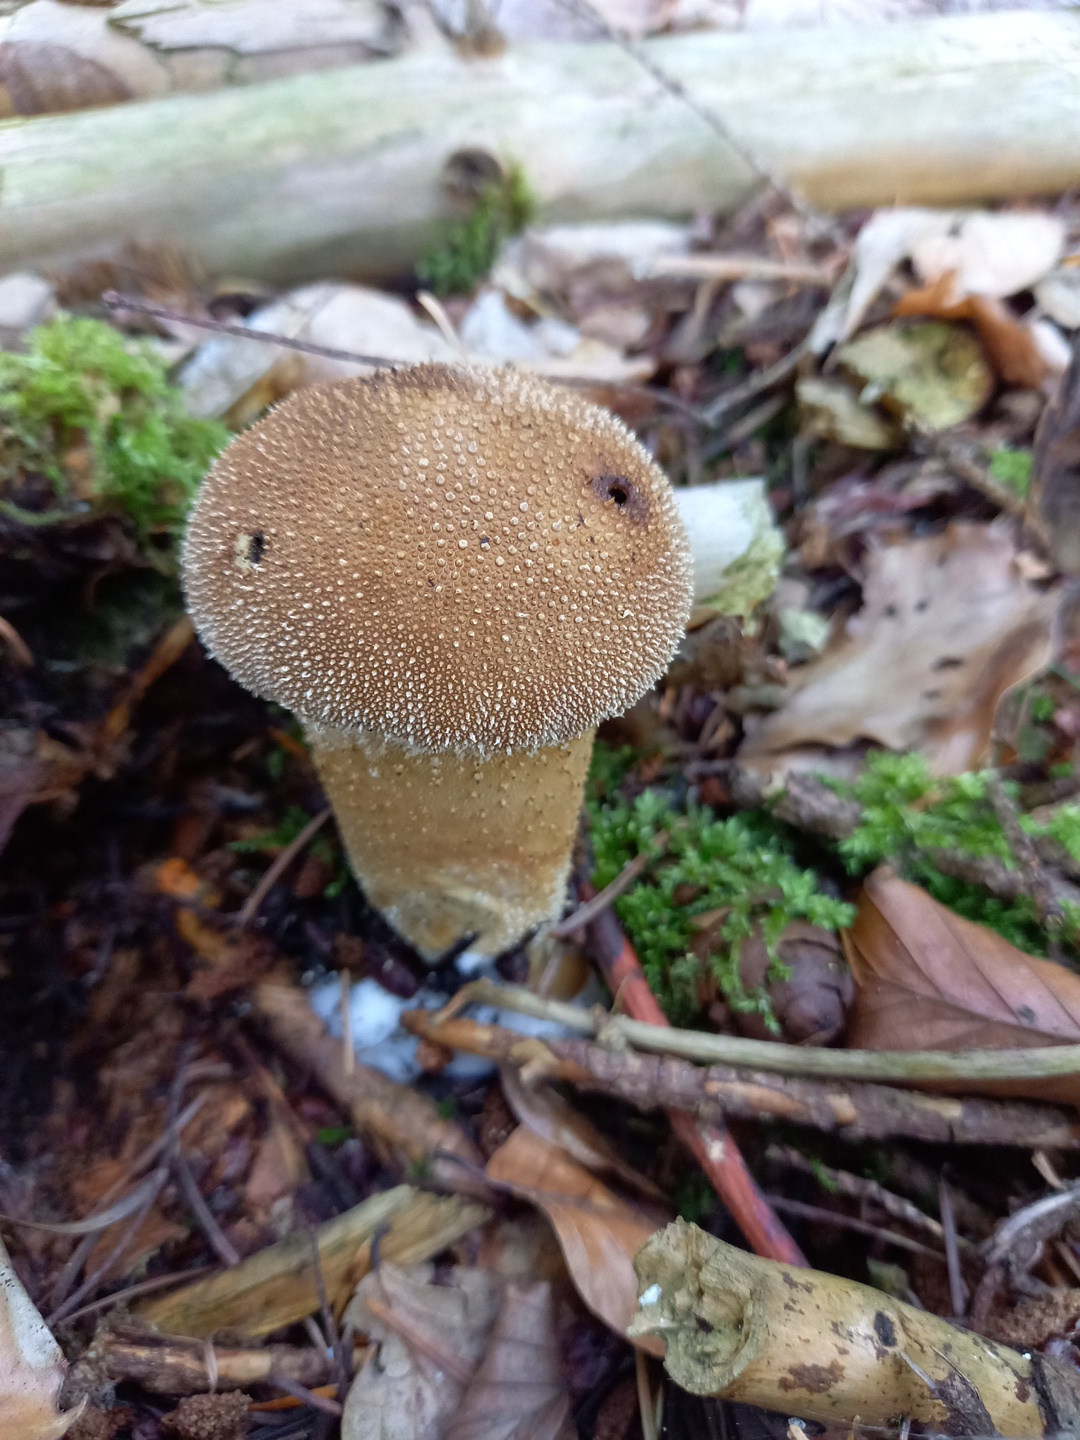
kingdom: Fungi
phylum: Basidiomycota
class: Agaricomycetes
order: Agaricales
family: Lycoperdaceae
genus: Lycoperdon
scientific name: Lycoperdon perlatum
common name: krystal-støvbold
